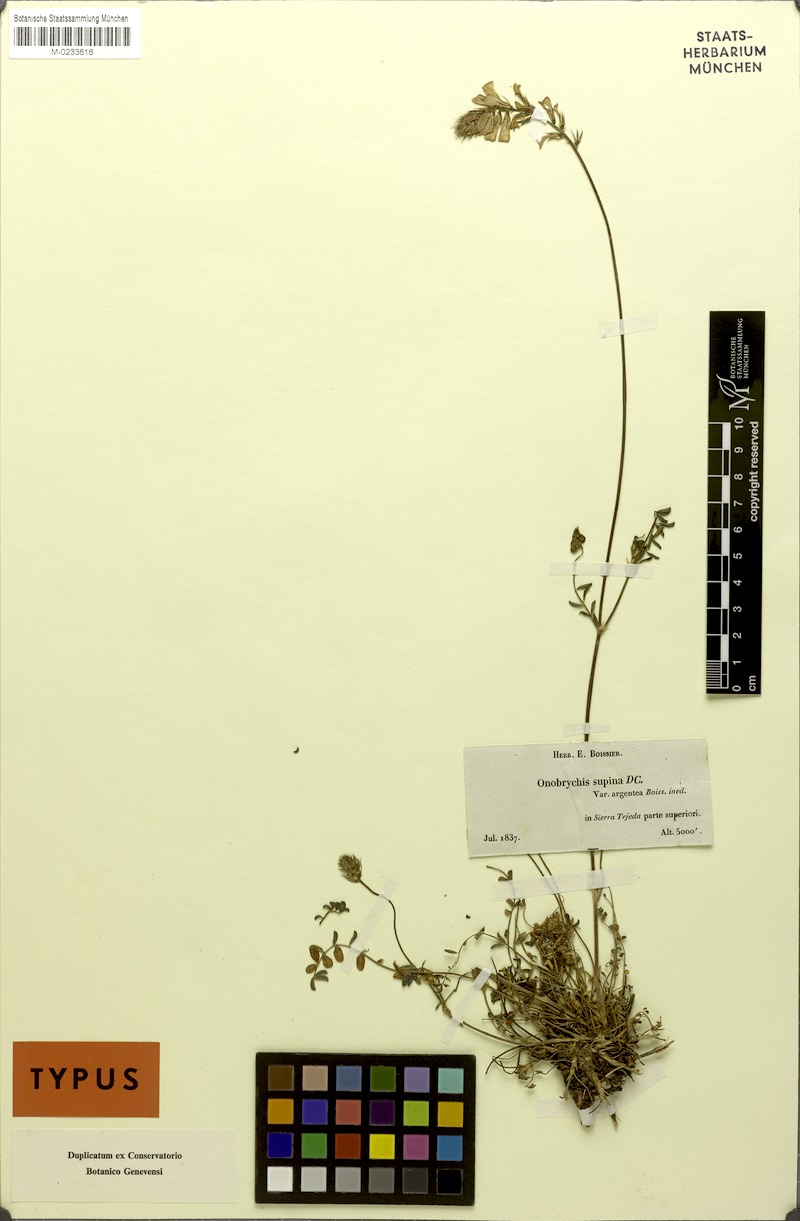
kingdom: Plantae
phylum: Tracheophyta
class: Magnoliopsida
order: Fabales
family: Fabaceae
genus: Onobrychis
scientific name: Onobrychis supina
